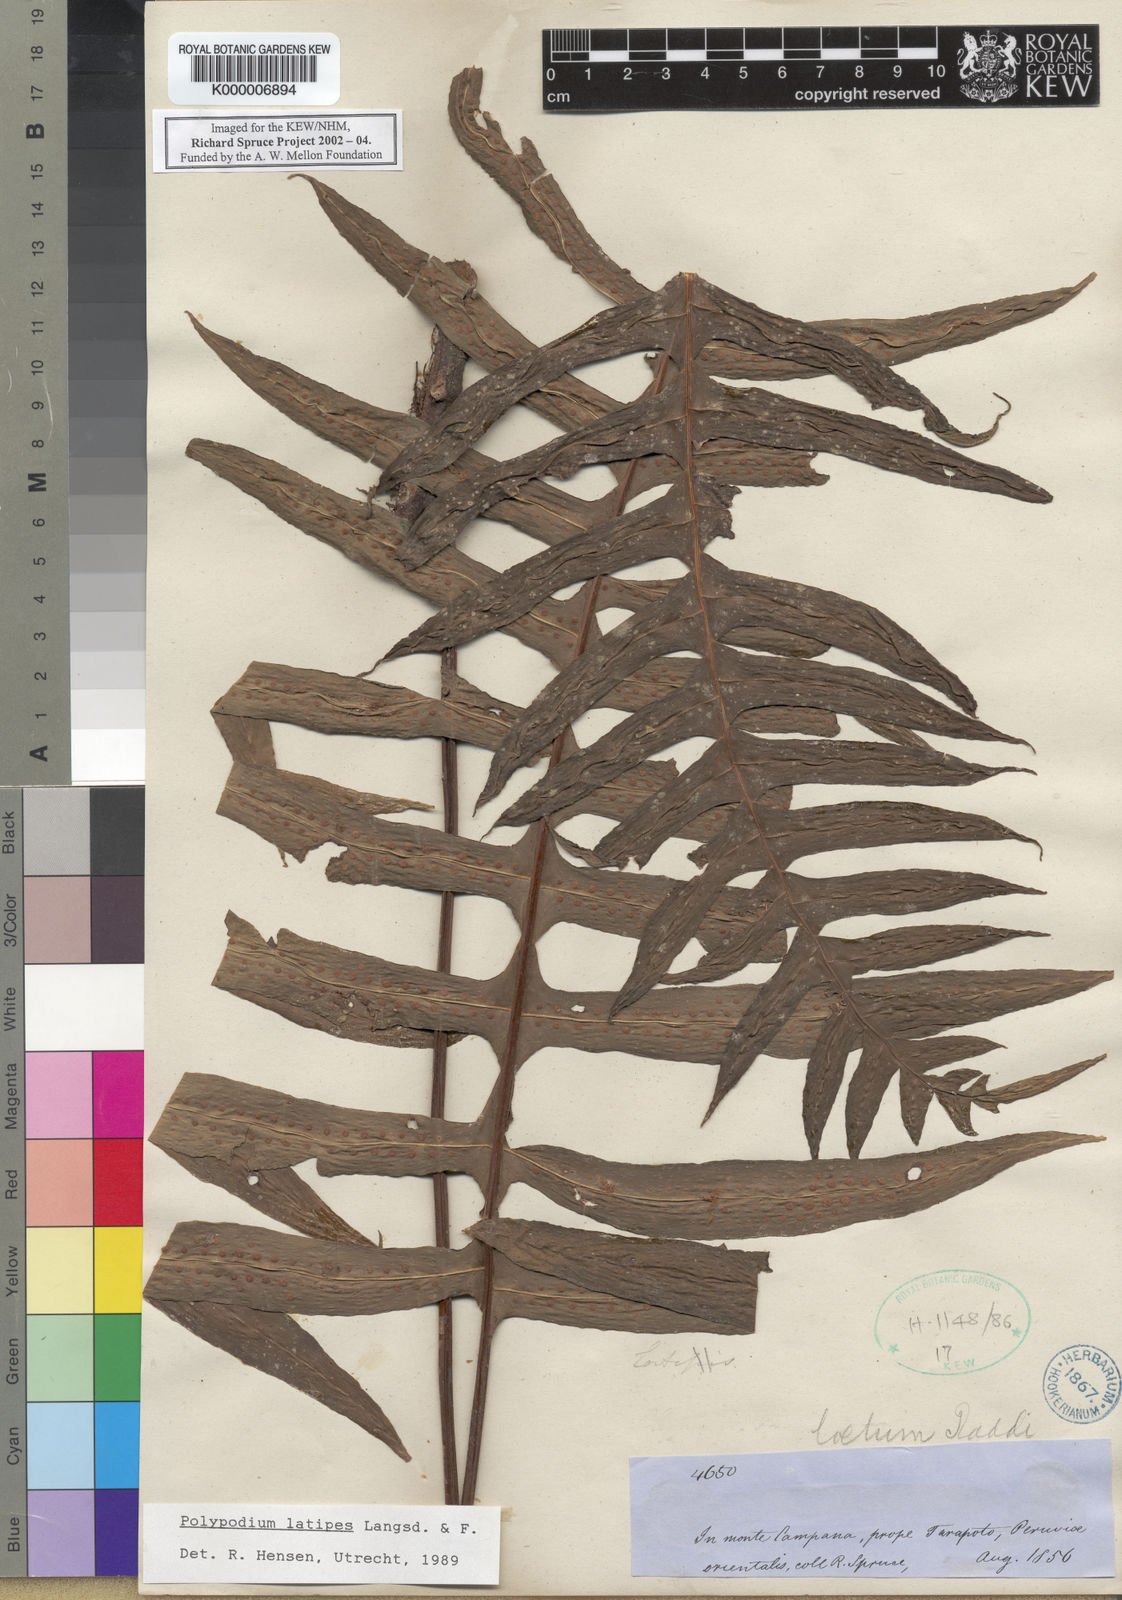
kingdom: Plantae
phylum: Tracheophyta
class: Polypodiopsida
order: Polypodiales
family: Polypodiaceae
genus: Serpocaulon
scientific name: Serpocaulon latipes
